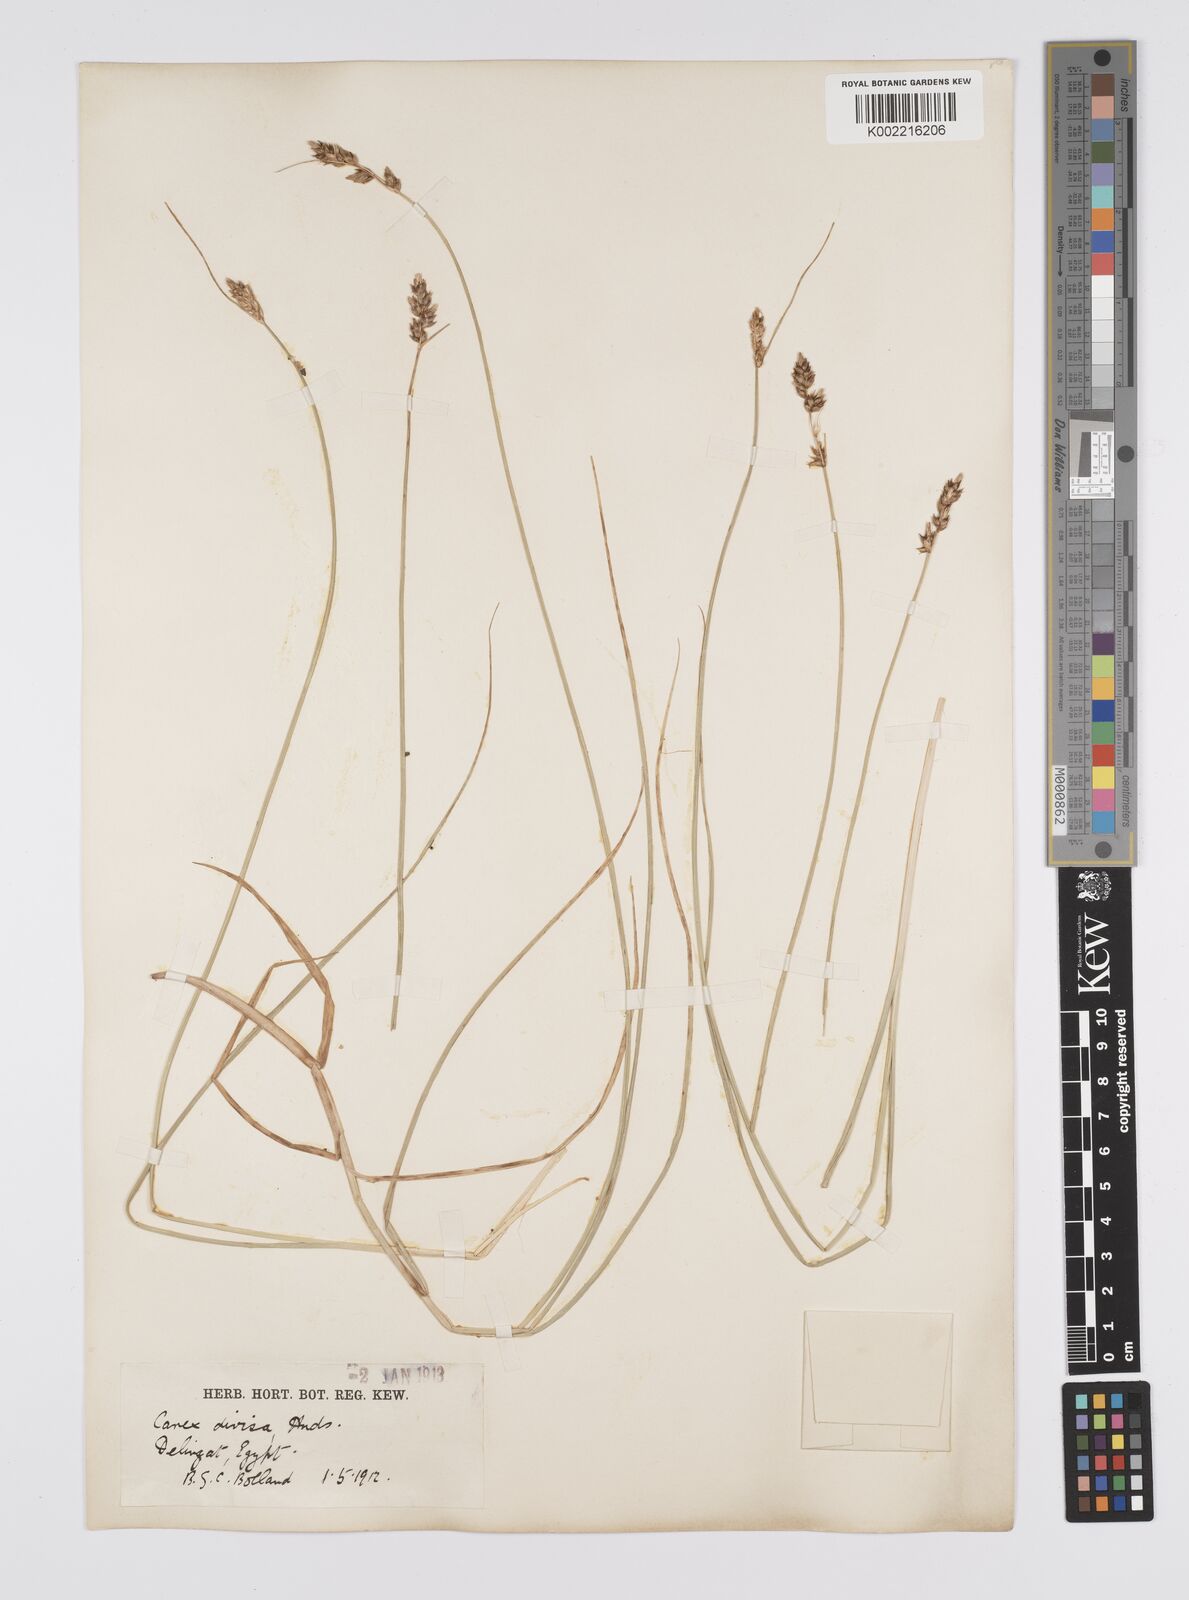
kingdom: Plantae
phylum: Tracheophyta
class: Liliopsida
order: Poales
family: Cyperaceae
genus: Carex
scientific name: Carex divisa
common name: Divided sedge
